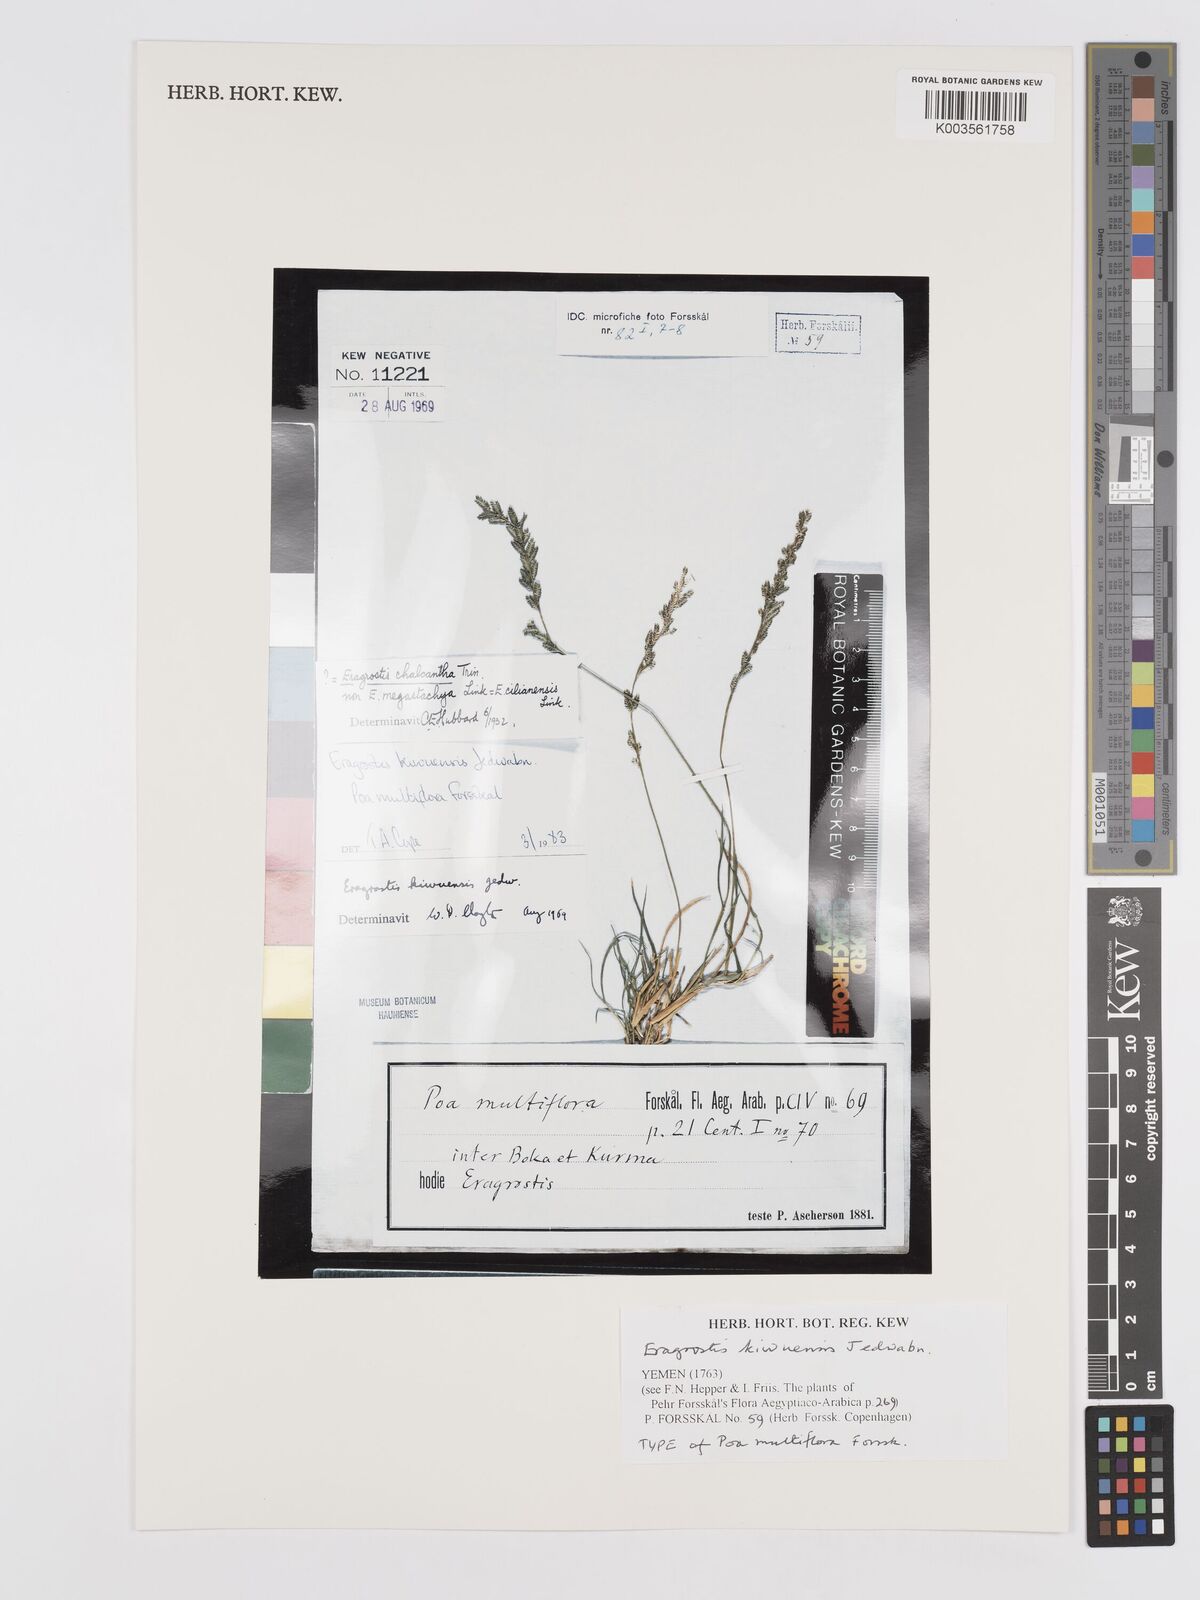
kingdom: Plantae
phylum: Tracheophyta
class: Liliopsida
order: Poales
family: Poaceae
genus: Eragrostis
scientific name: Eragrostis schweinfurthii
